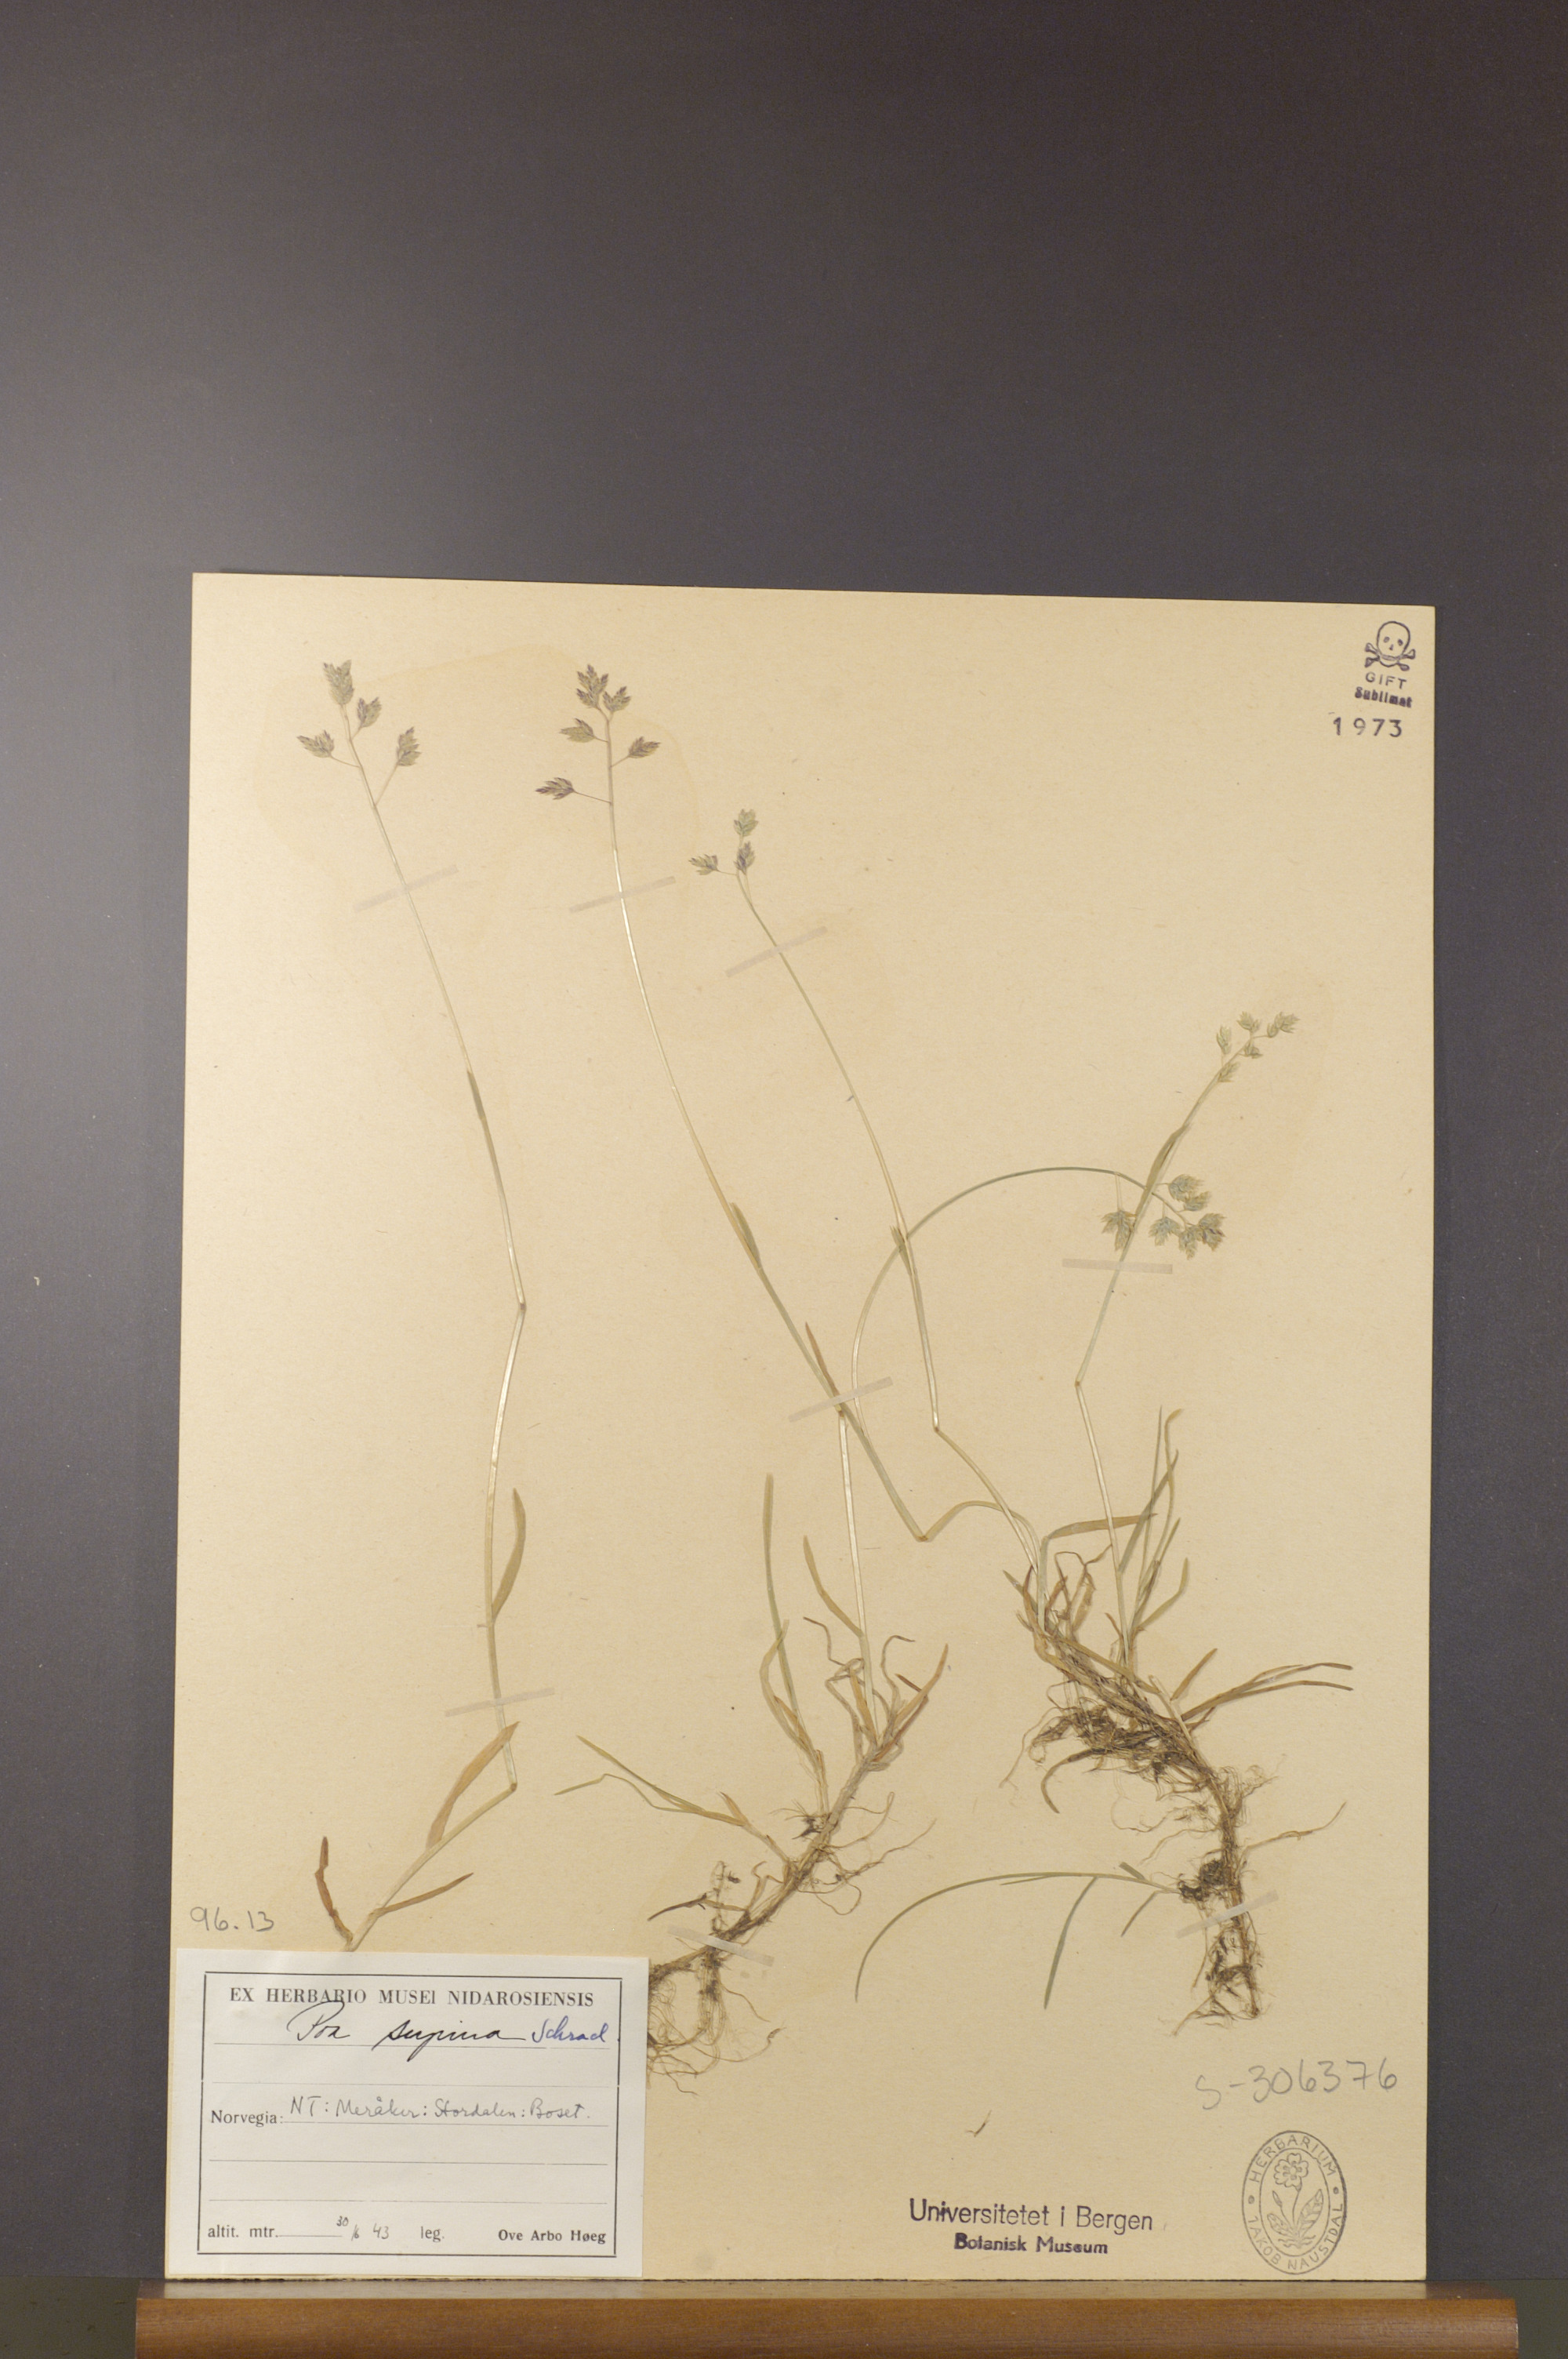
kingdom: Plantae
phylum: Tracheophyta
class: Liliopsida
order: Poales
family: Poaceae
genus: Poa
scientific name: Poa supina
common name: Supina bluegrass
